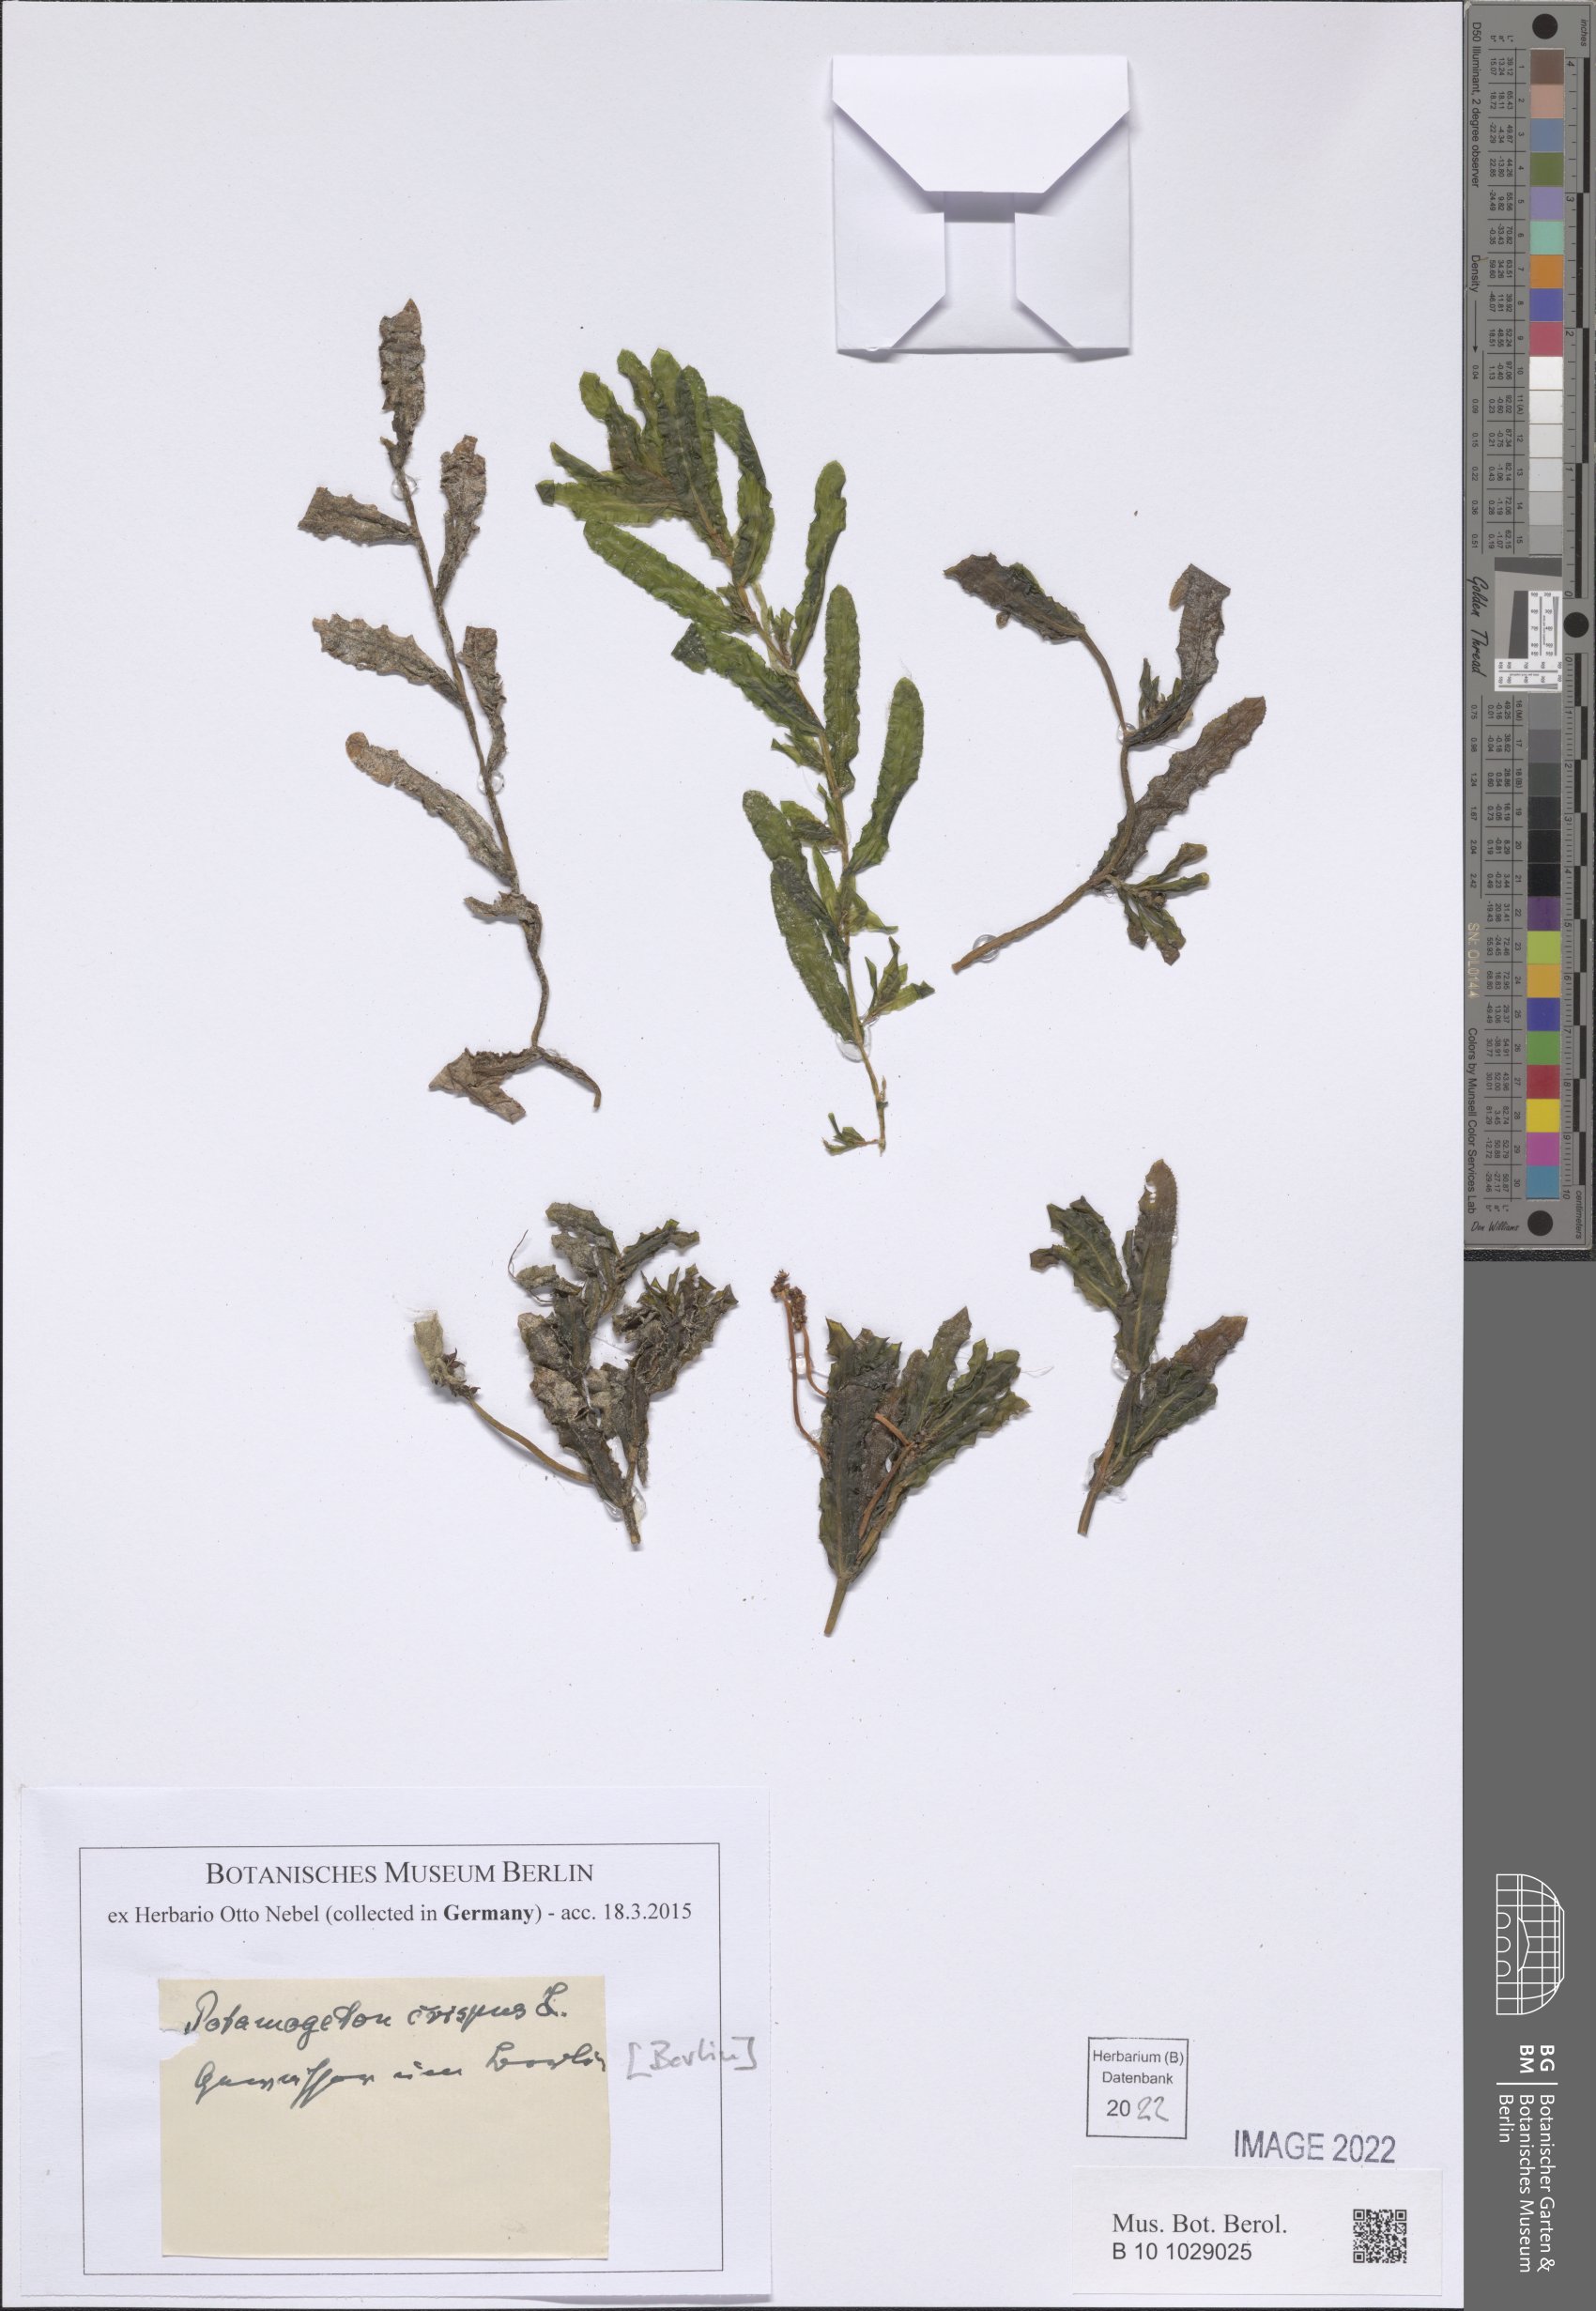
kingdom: Plantae
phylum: Tracheophyta
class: Liliopsida
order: Alismatales
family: Potamogetonaceae
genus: Potamogeton
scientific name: Potamogeton crispus
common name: Curled pondweed
